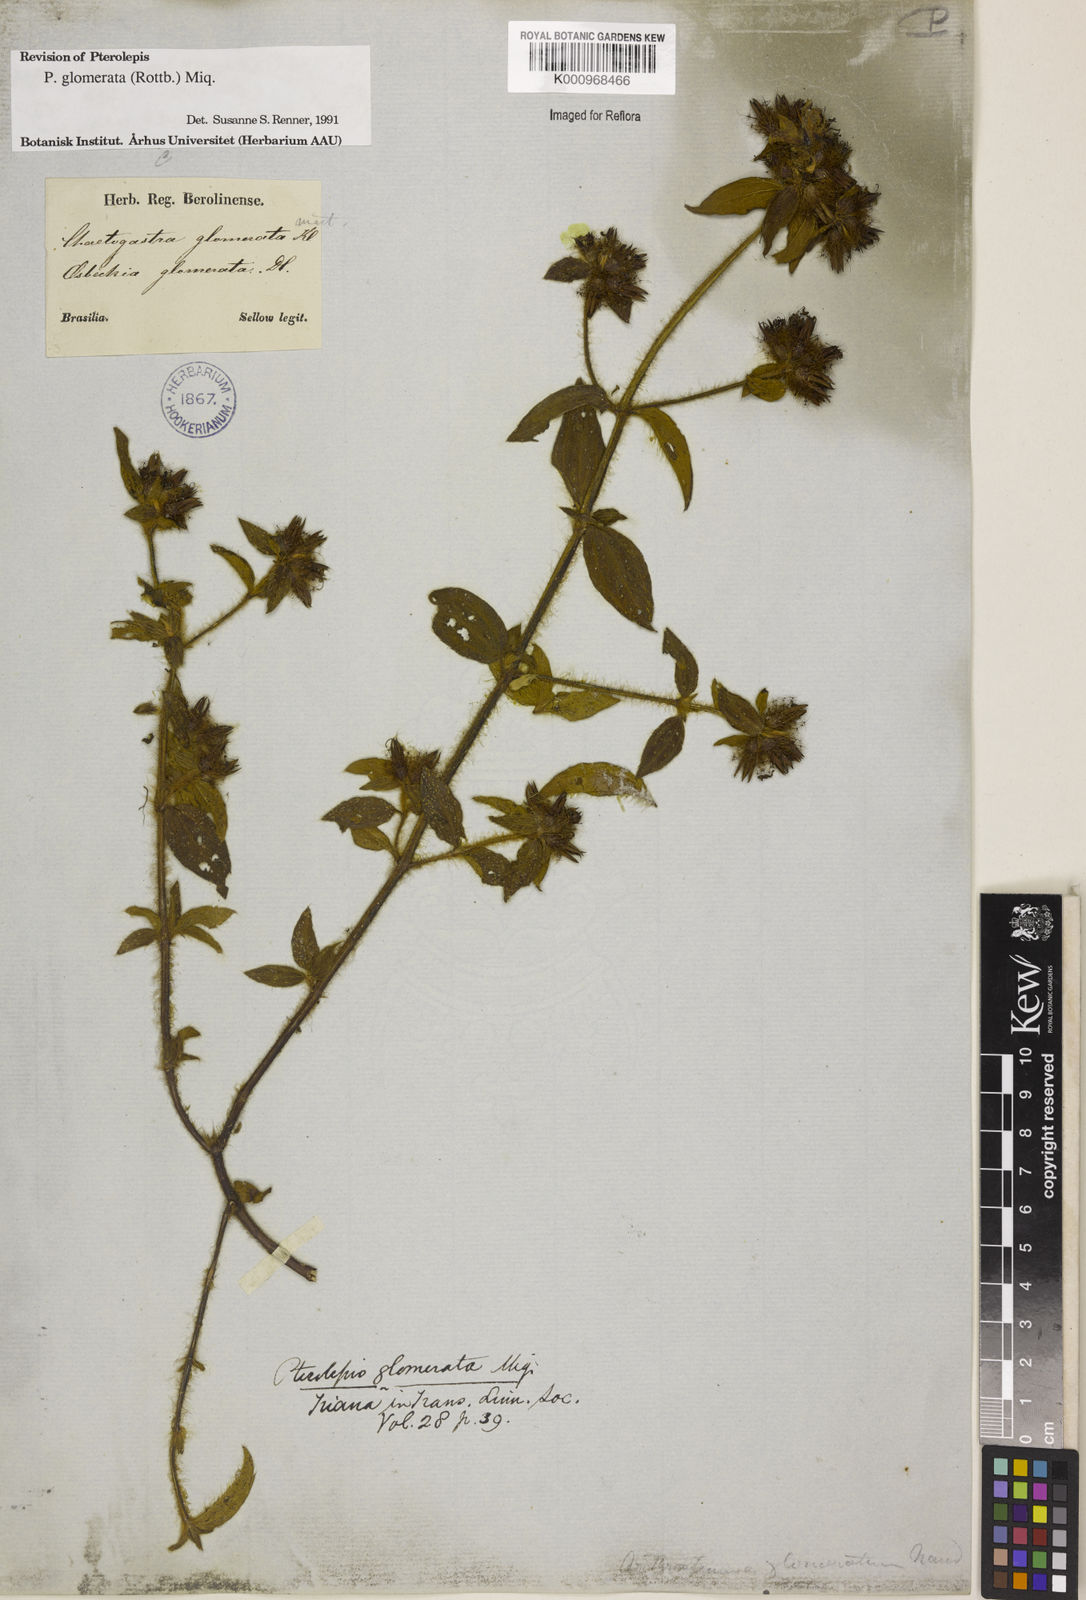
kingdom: Plantae
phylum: Tracheophyta
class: Magnoliopsida
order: Myrtales
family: Melastomataceae
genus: Pterolepis
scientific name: Pterolepis glomerata
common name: False meadowbeauty
